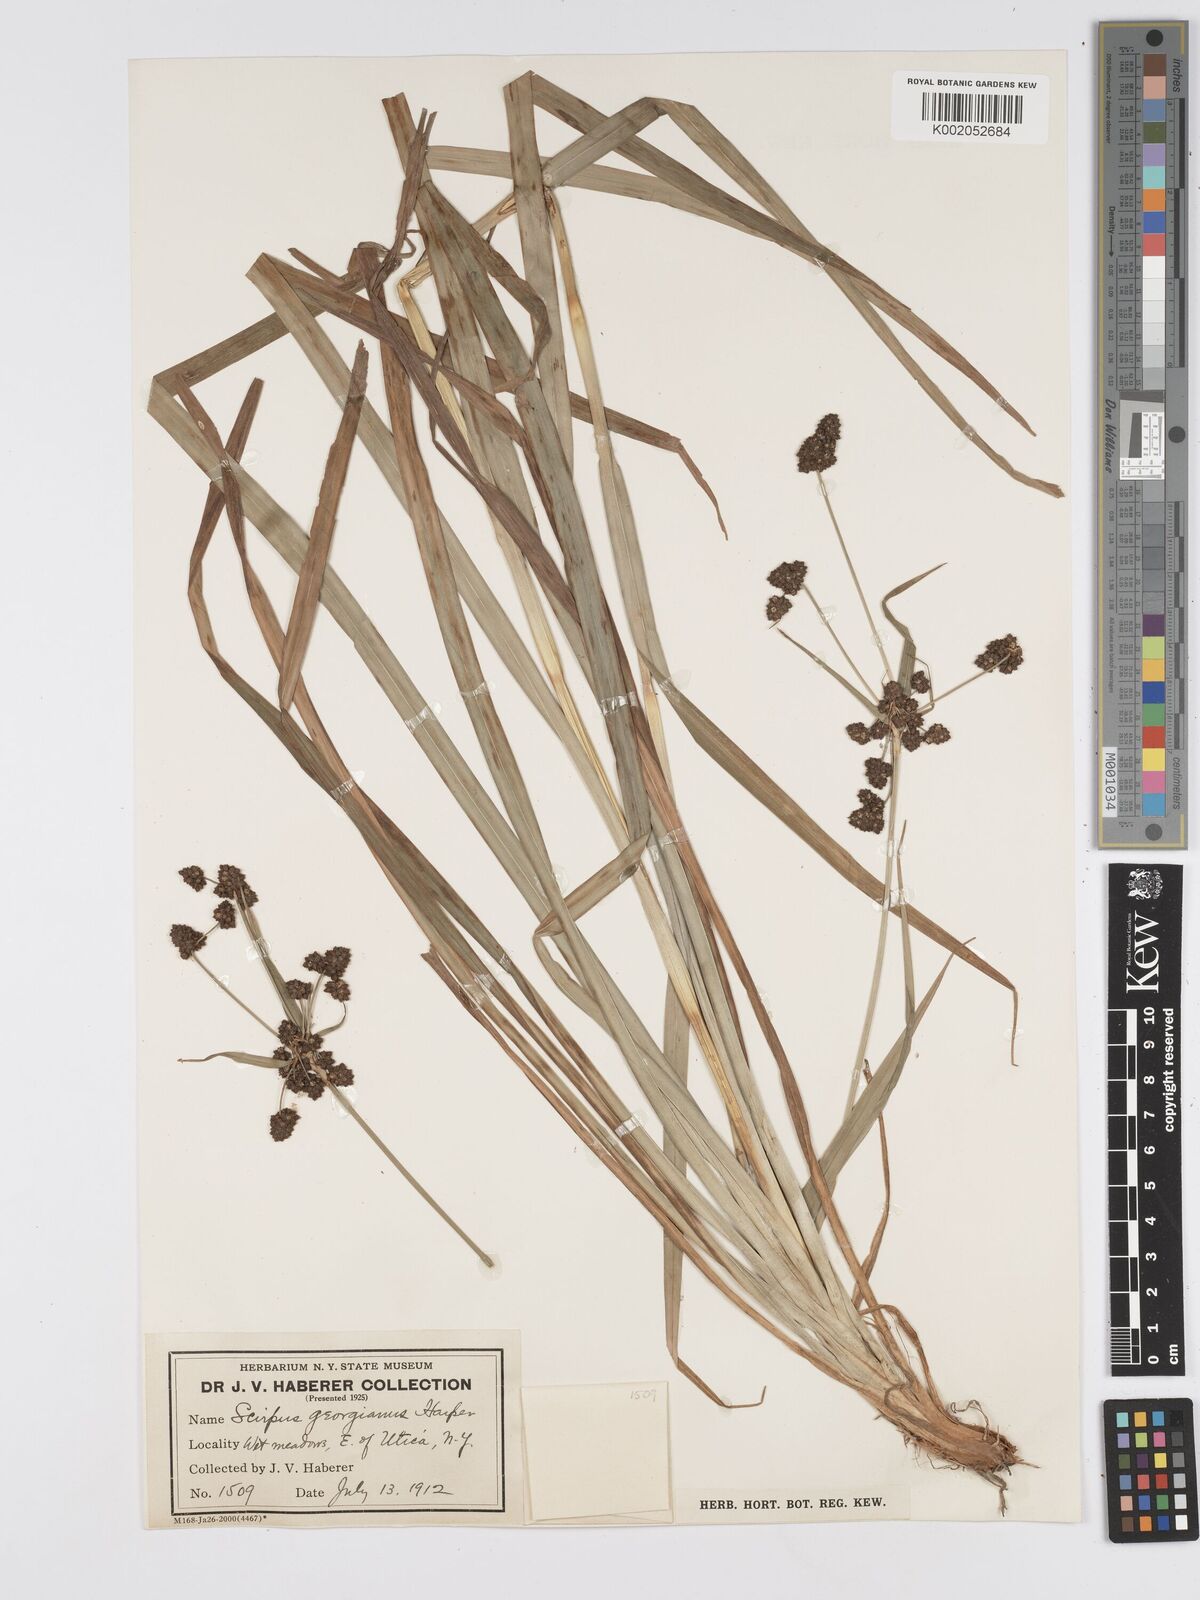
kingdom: Plantae
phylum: Tracheophyta
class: Liliopsida
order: Poales
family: Cyperaceae
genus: Scirpus
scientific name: Scirpus atrovirens
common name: Black bulrush
